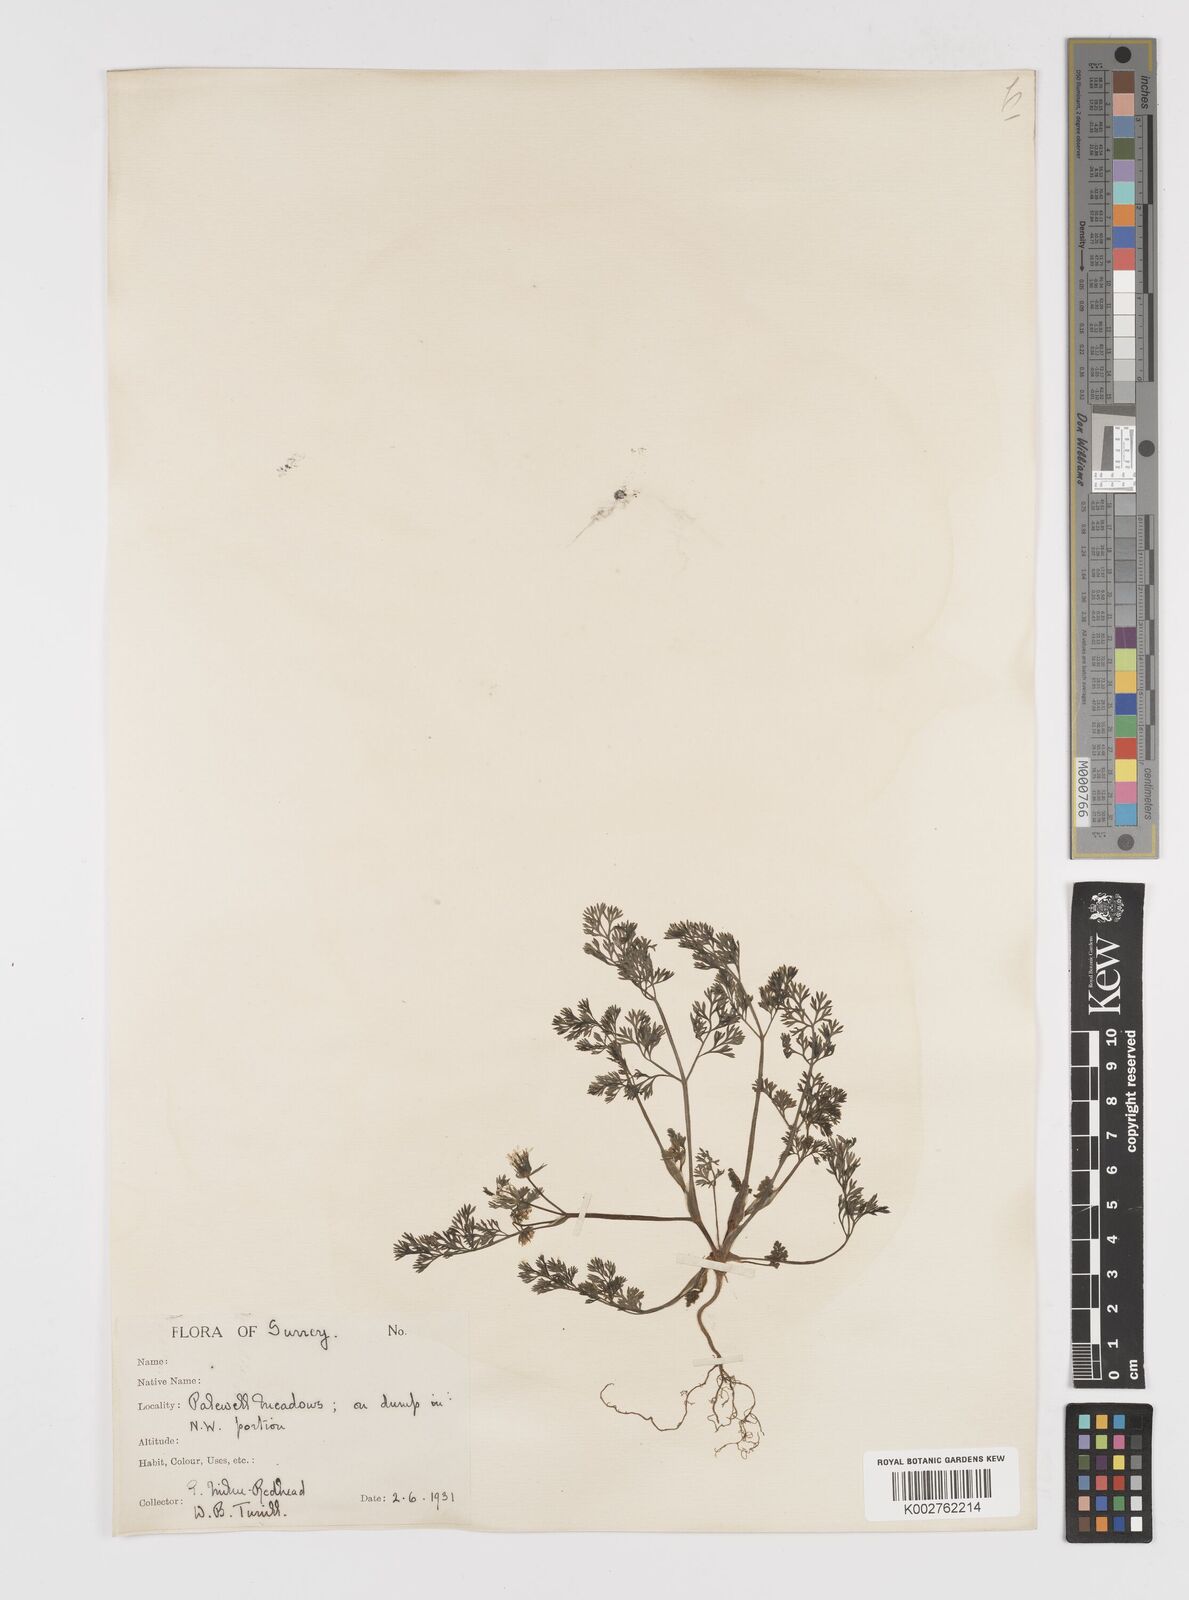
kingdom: Plantae
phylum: Tracheophyta
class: Magnoliopsida
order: Apiales
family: Apiaceae
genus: Scandix
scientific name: Scandix pecten-veneris
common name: Shepherd's-needle
